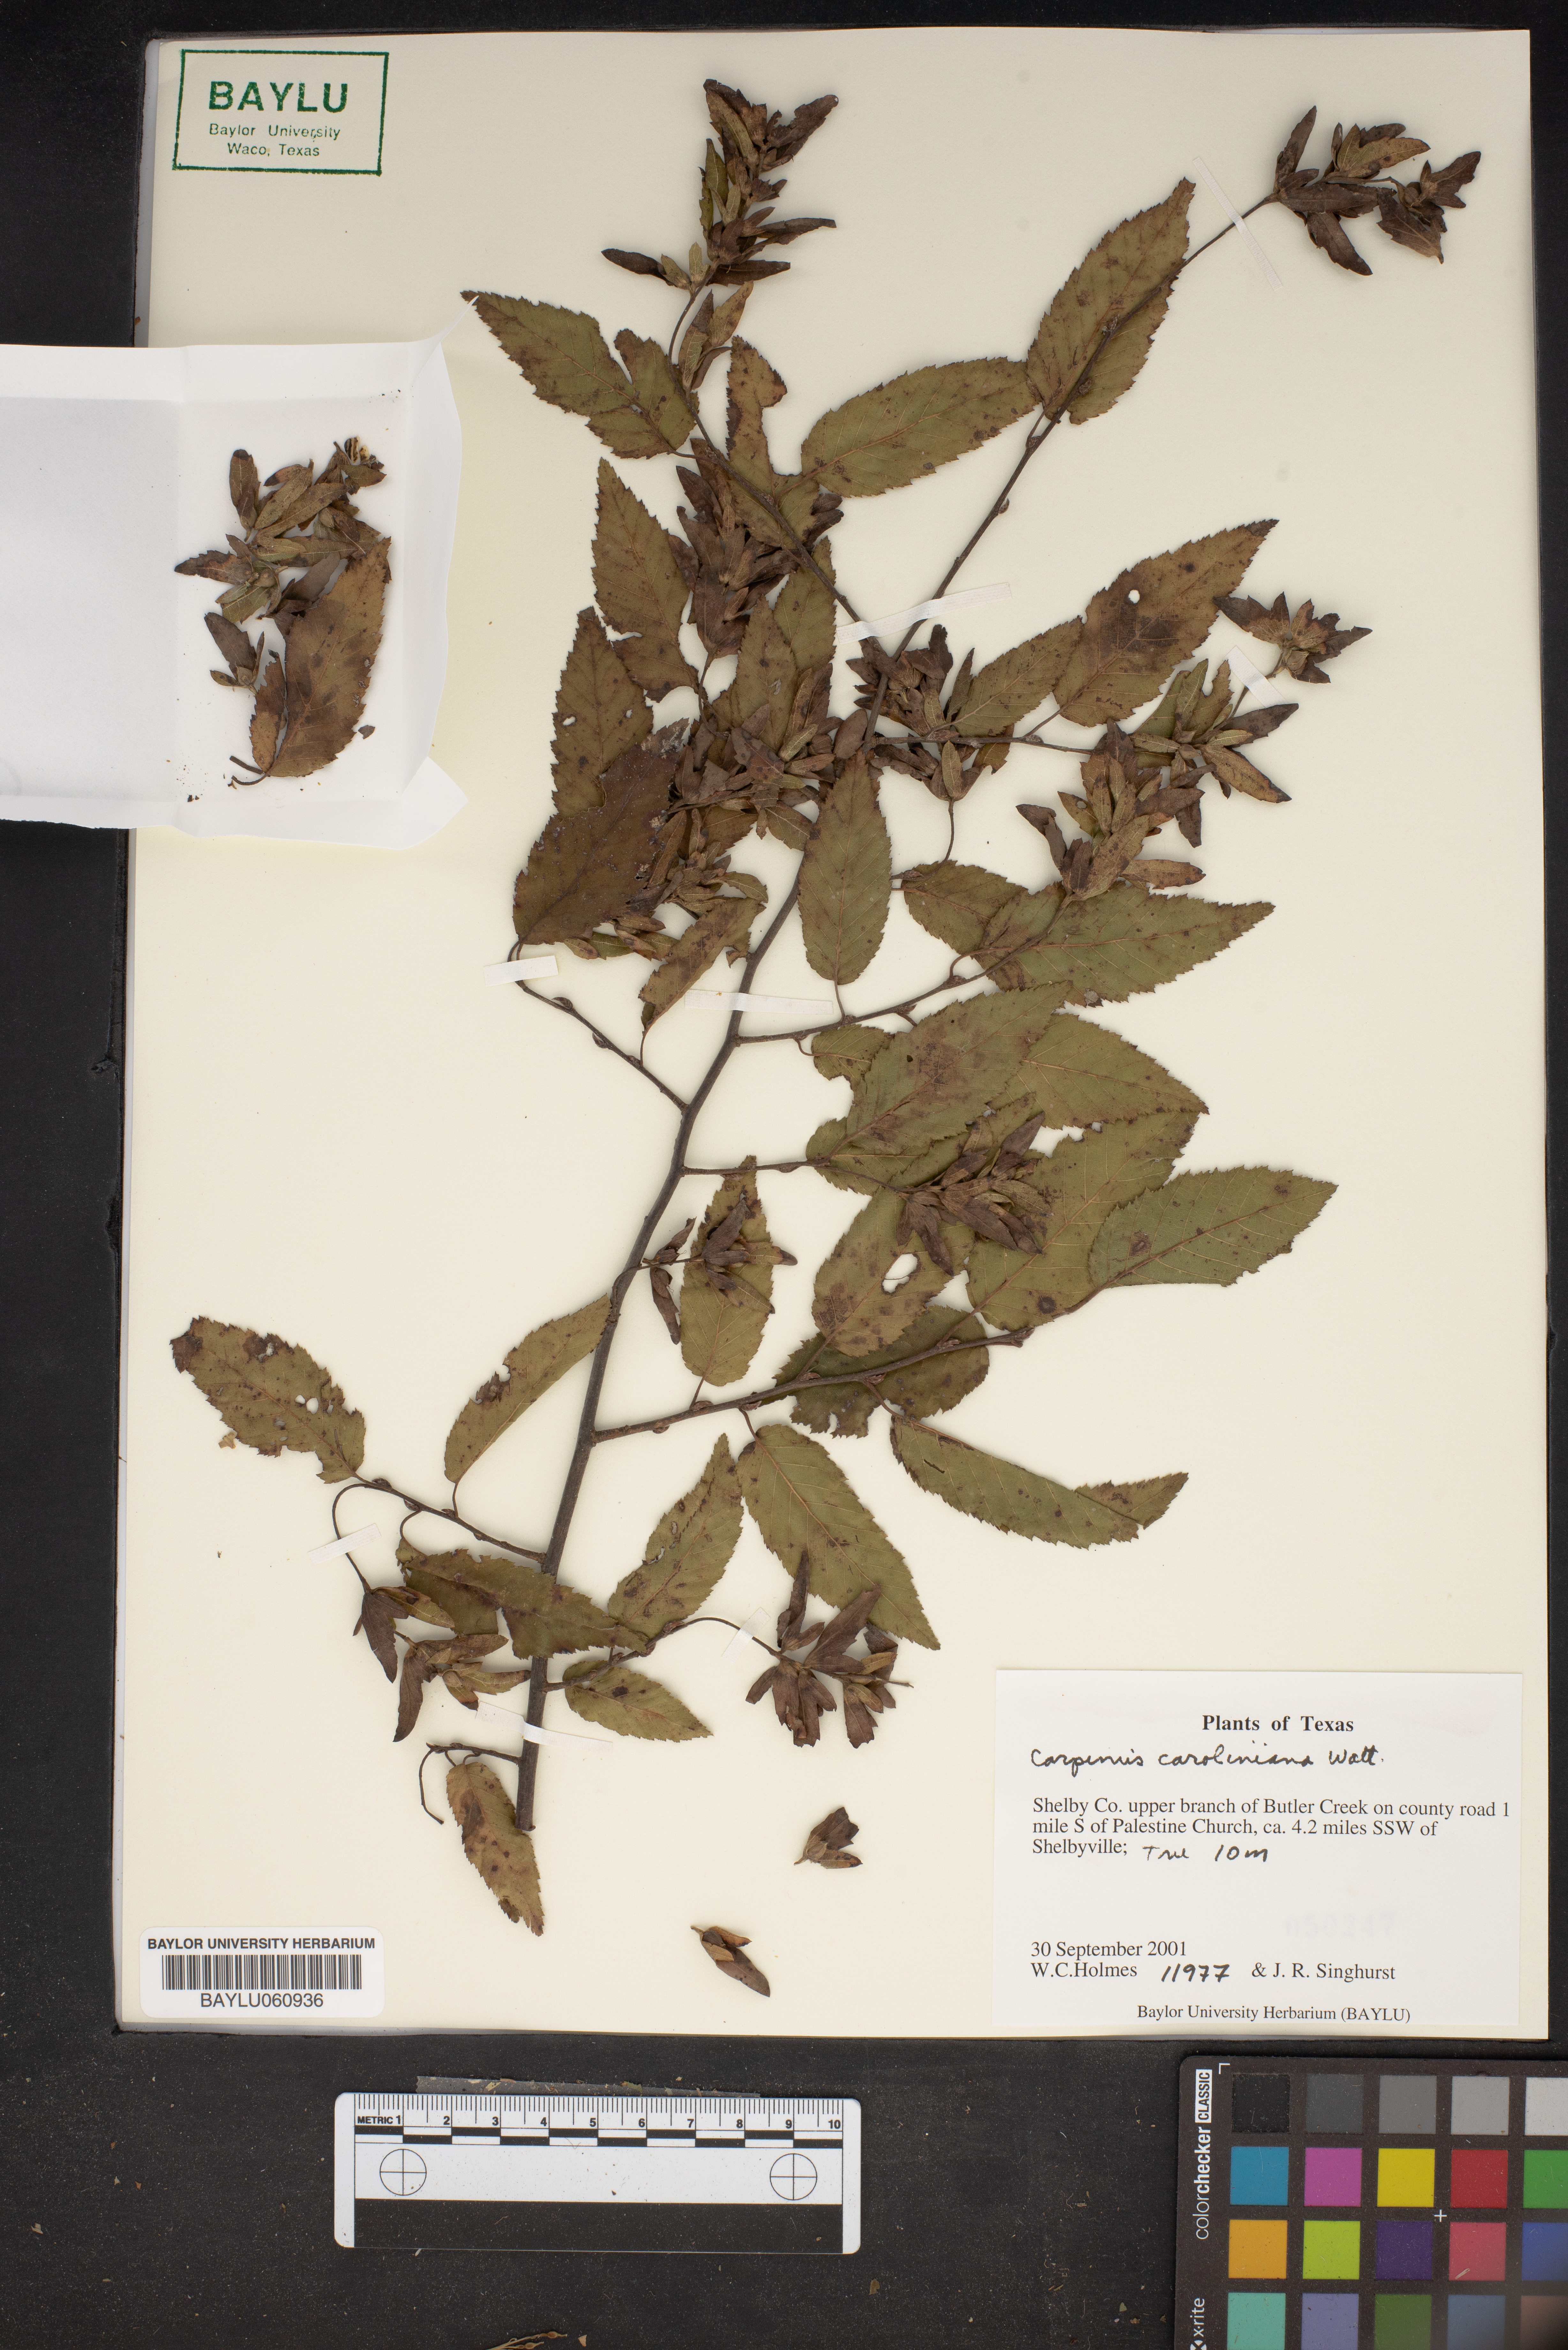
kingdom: Plantae
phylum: Tracheophyta
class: Magnoliopsida
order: Fagales
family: Betulaceae
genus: Carpinus
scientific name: Carpinus caroliniana
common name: American hornbeam
